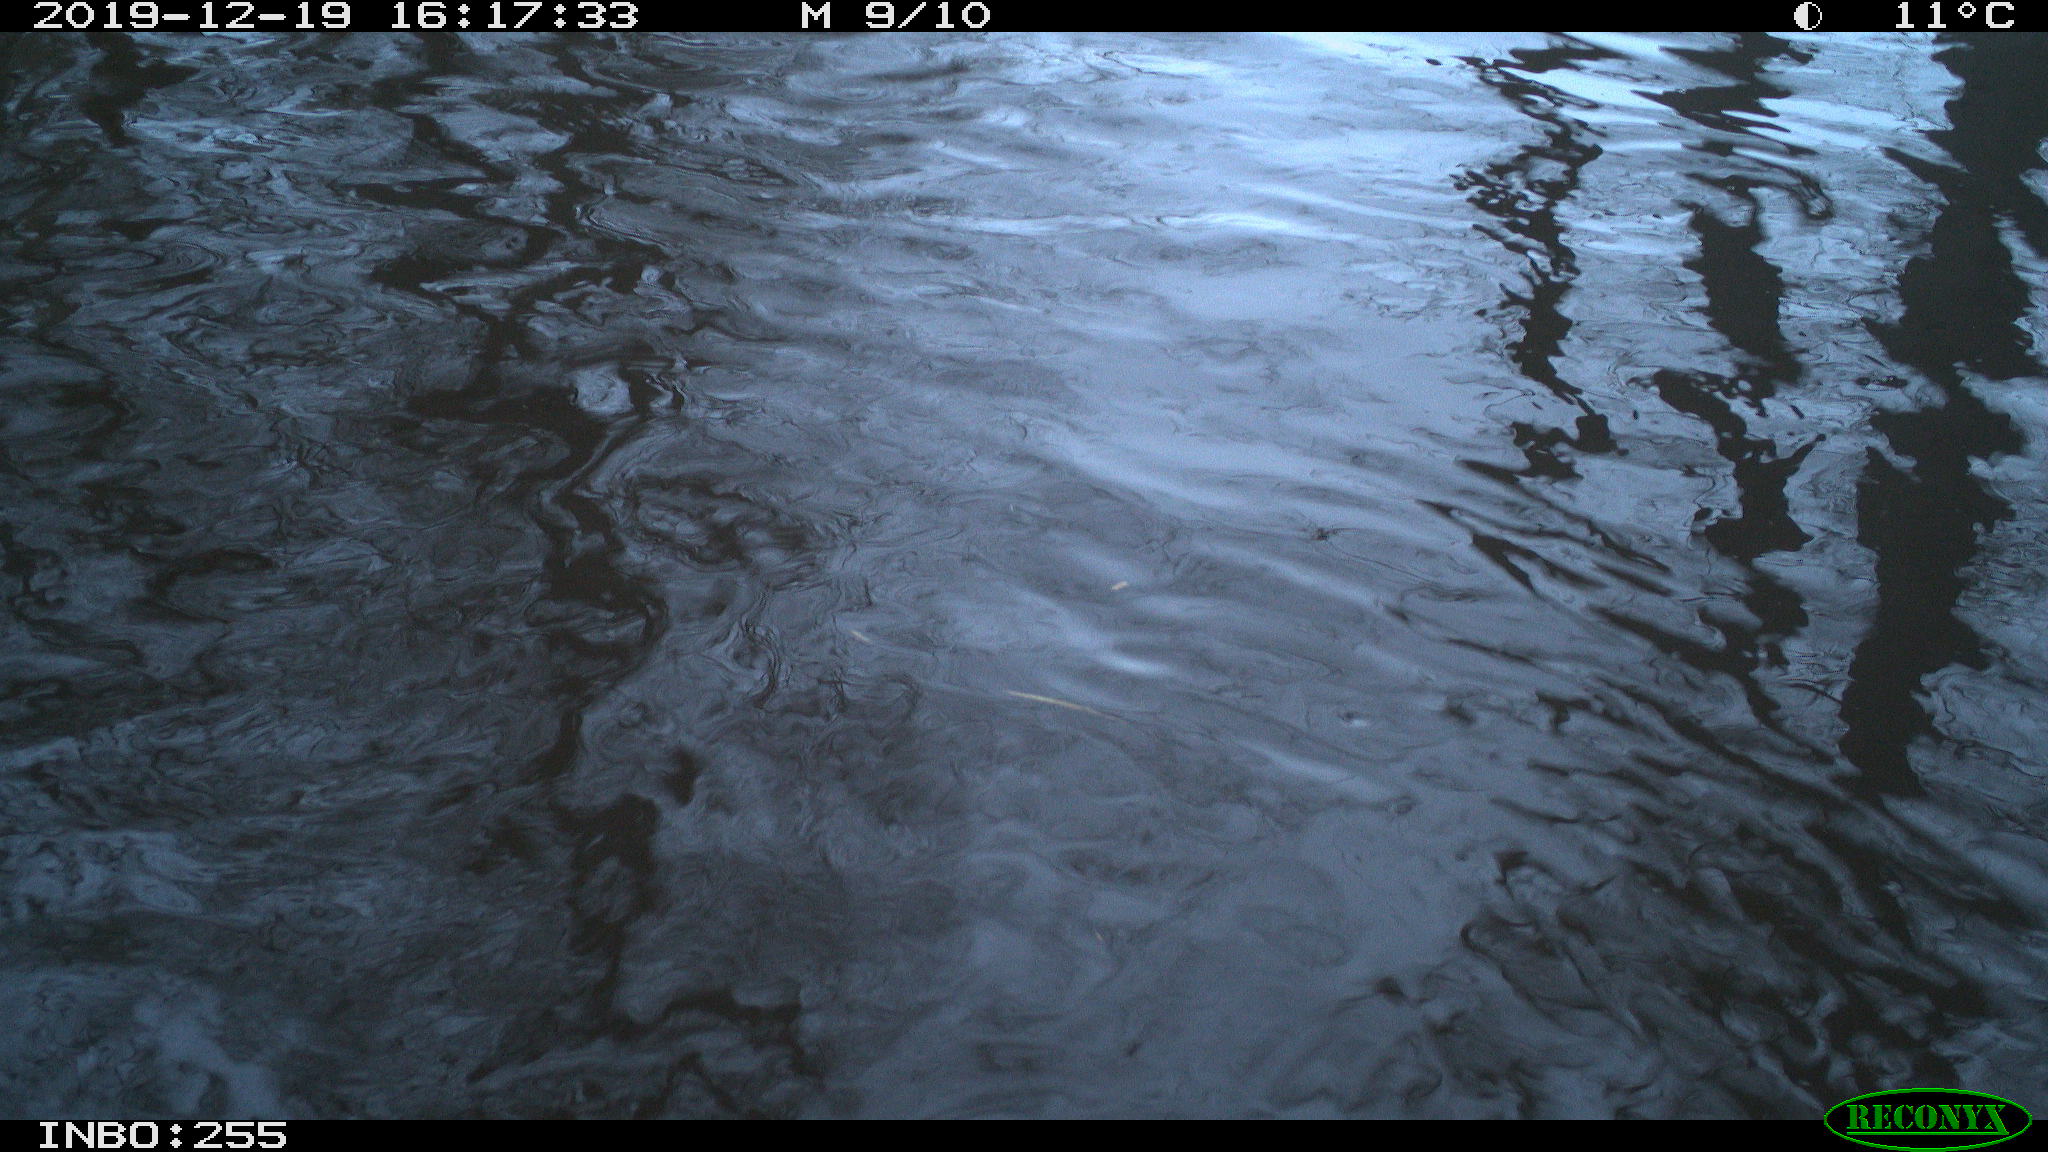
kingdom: Animalia
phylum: Chordata
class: Aves
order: Gruiformes
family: Rallidae
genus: Gallinula
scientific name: Gallinula chloropus
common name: Common moorhen
